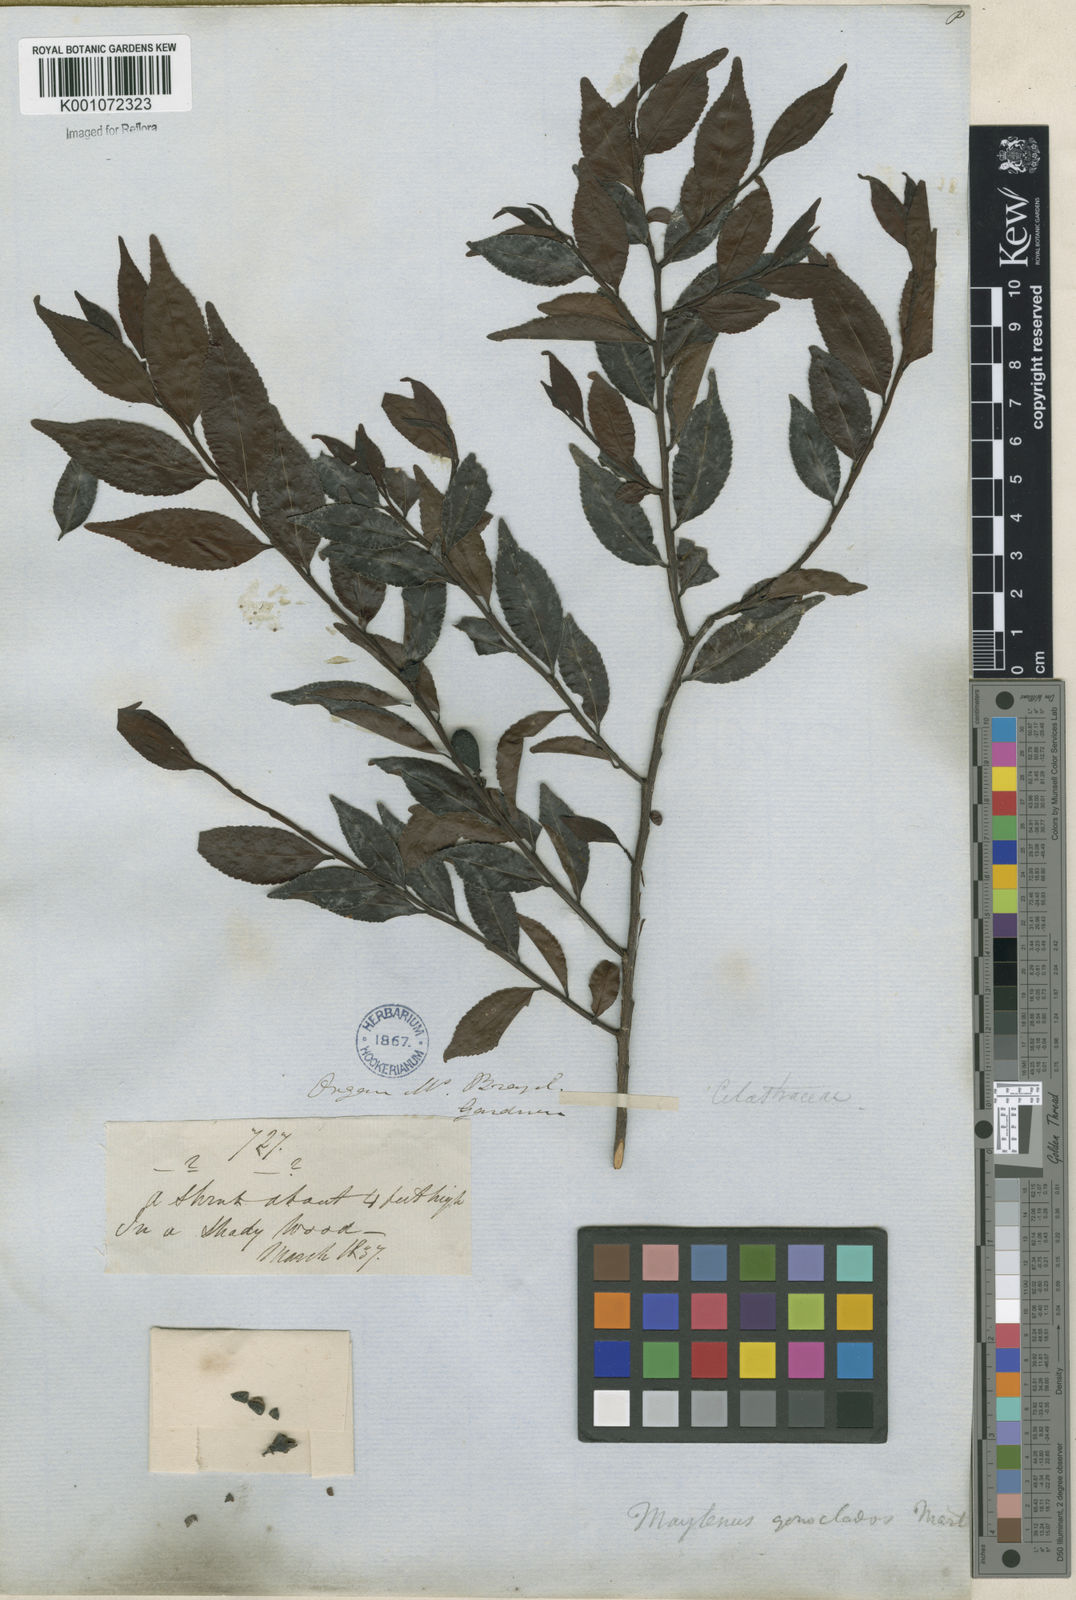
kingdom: Plantae
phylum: Tracheophyta
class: Magnoliopsida
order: Celastrales
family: Celastraceae
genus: Maytenus
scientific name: Maytenus
